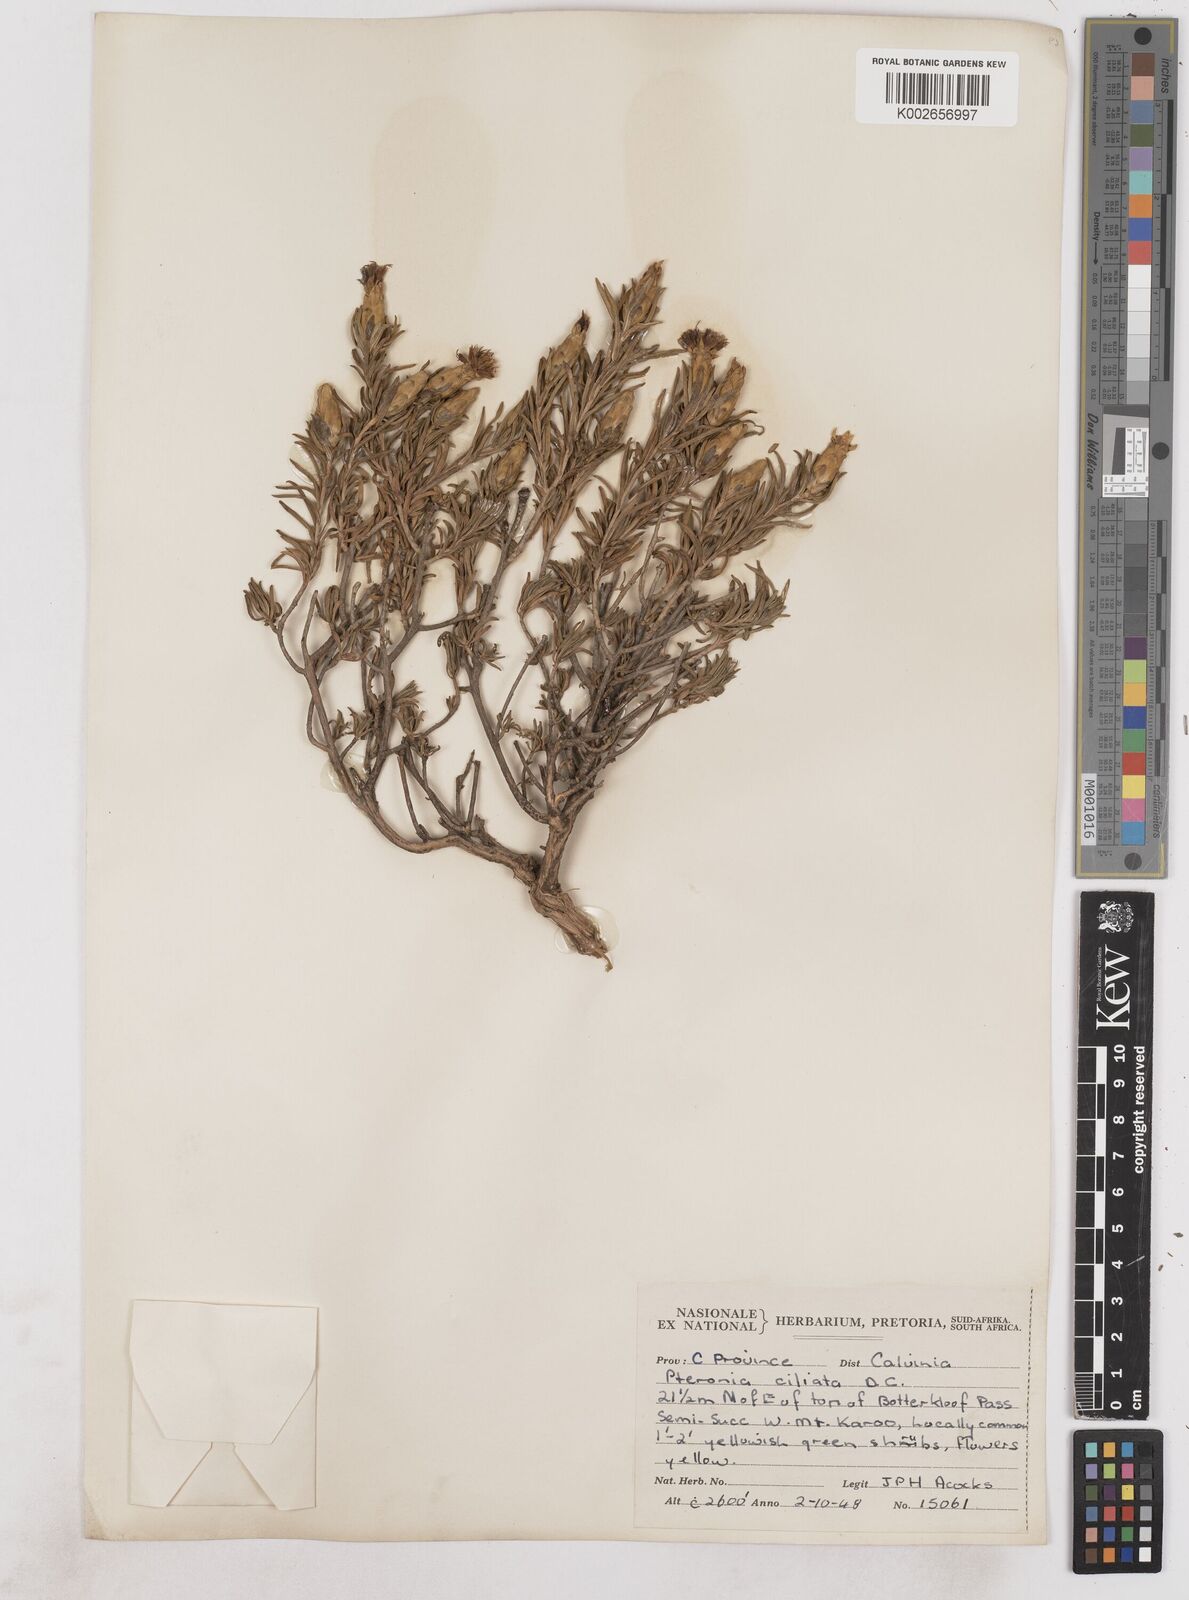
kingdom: Plantae
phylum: Tracheophyta
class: Magnoliopsida
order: Asterales
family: Asteraceae
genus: Pteronia
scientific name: Pteronia ciliata
